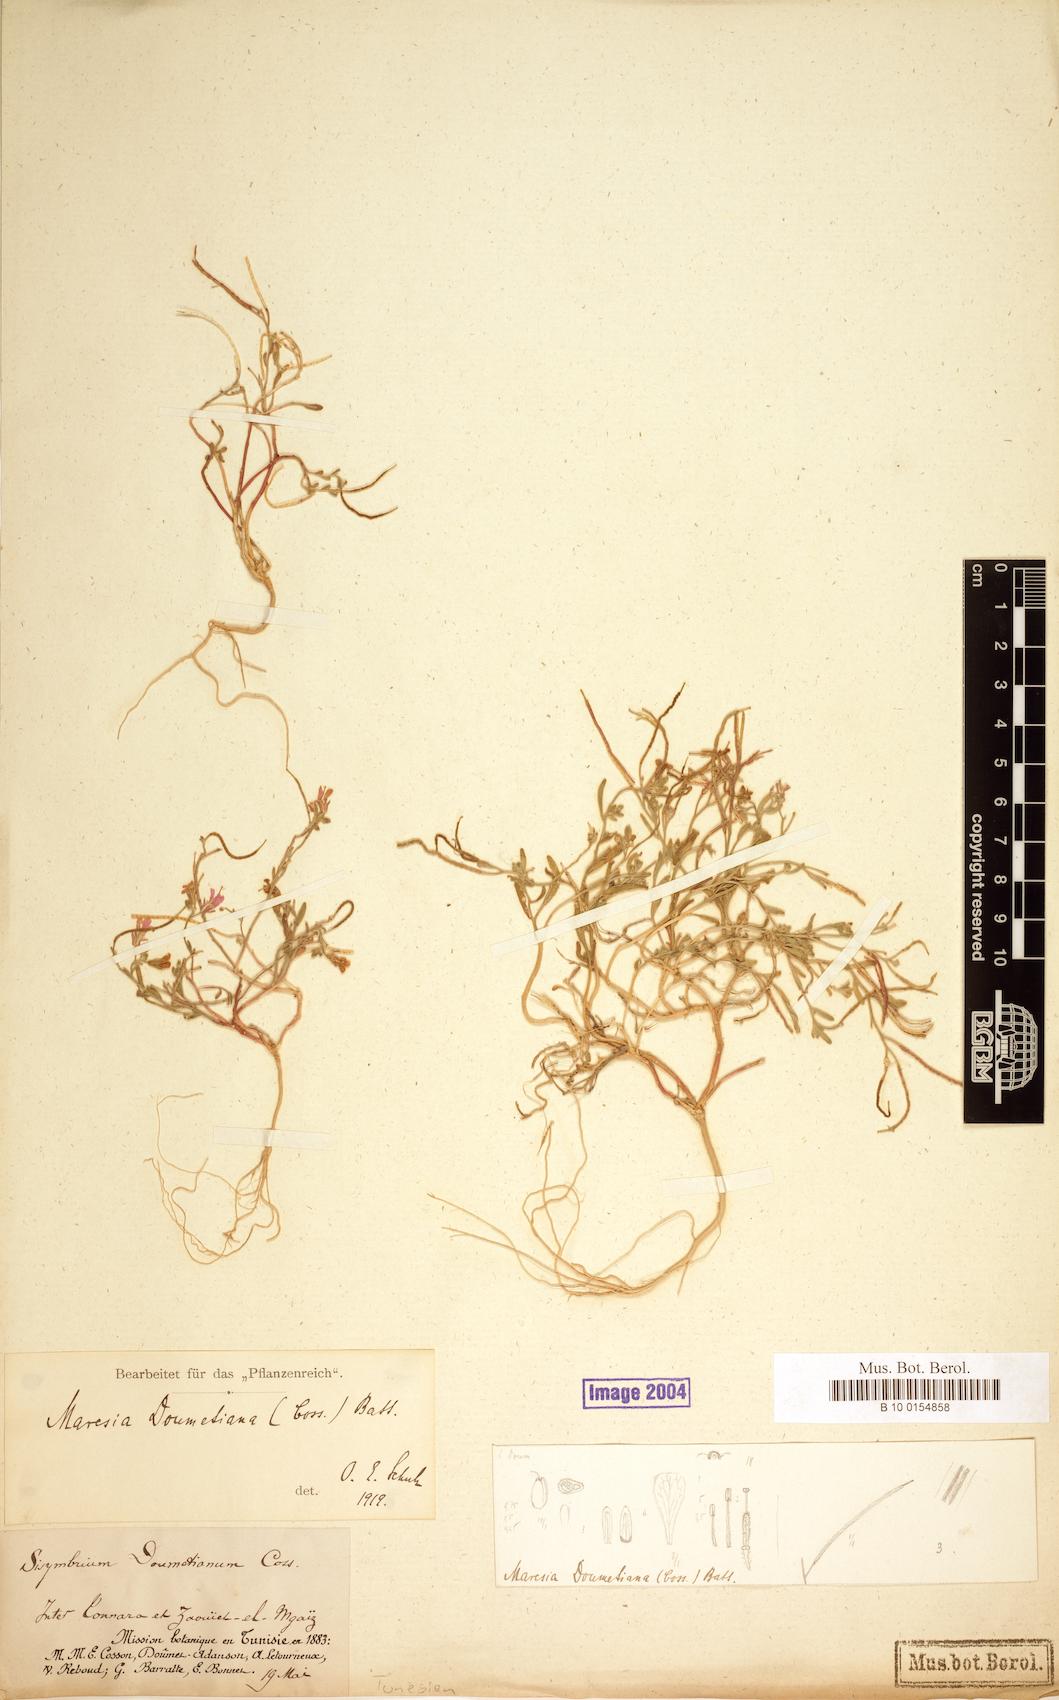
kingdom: Plantae
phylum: Tracheophyta
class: Magnoliopsida
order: Brassicales
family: Brassicaceae
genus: Maresia
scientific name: Maresia doumetiana
